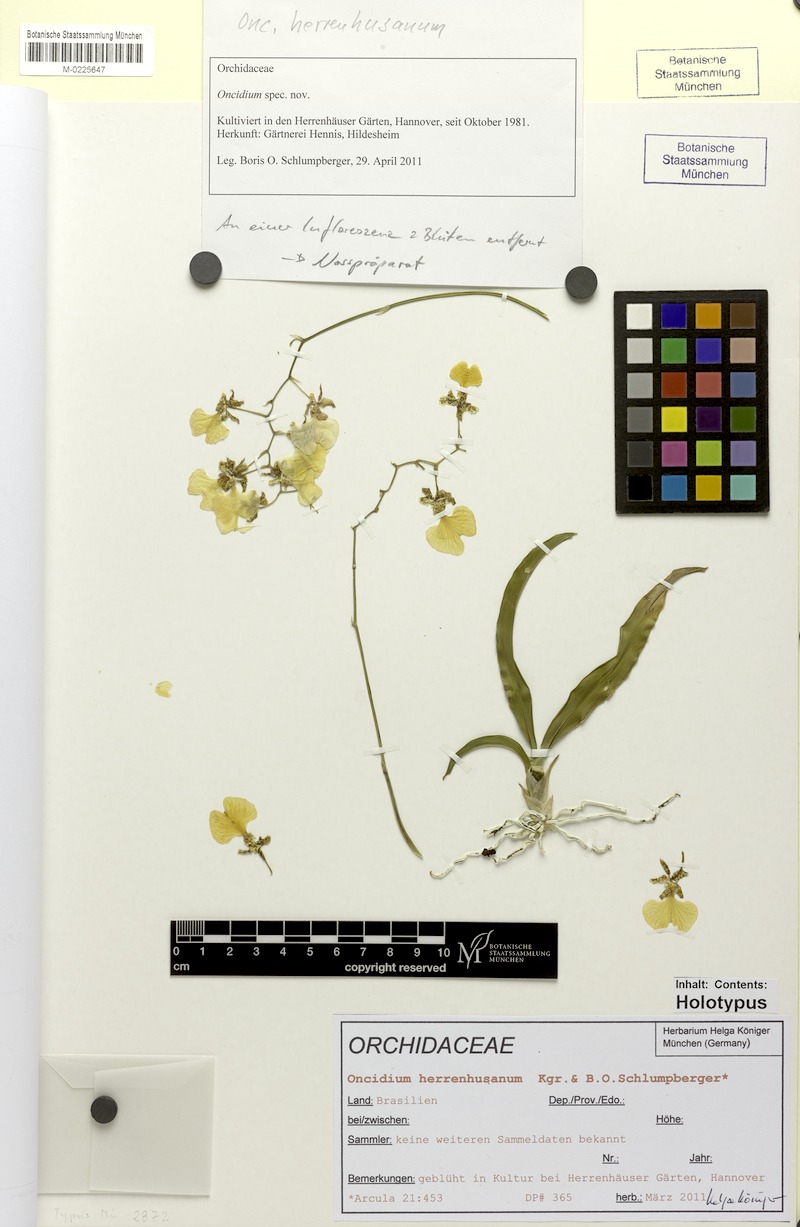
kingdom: Plantae
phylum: Tracheophyta
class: Liliopsida
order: Asparagales
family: Orchidaceae
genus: Oncidium
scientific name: Oncidium herrenhusanum
